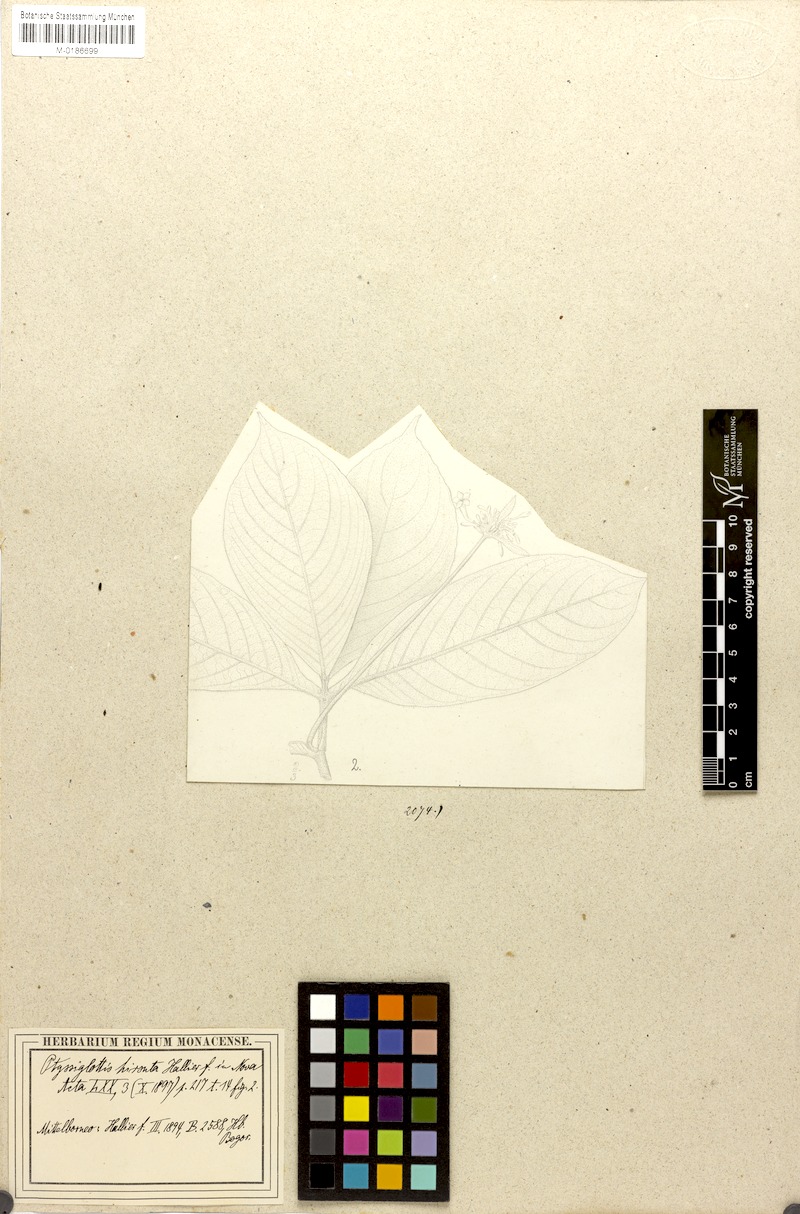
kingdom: Plantae
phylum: Tracheophyta
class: Magnoliopsida
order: Lamiales
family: Acanthaceae
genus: Ptyssiglottis
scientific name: Ptyssiglottis hirsuta
